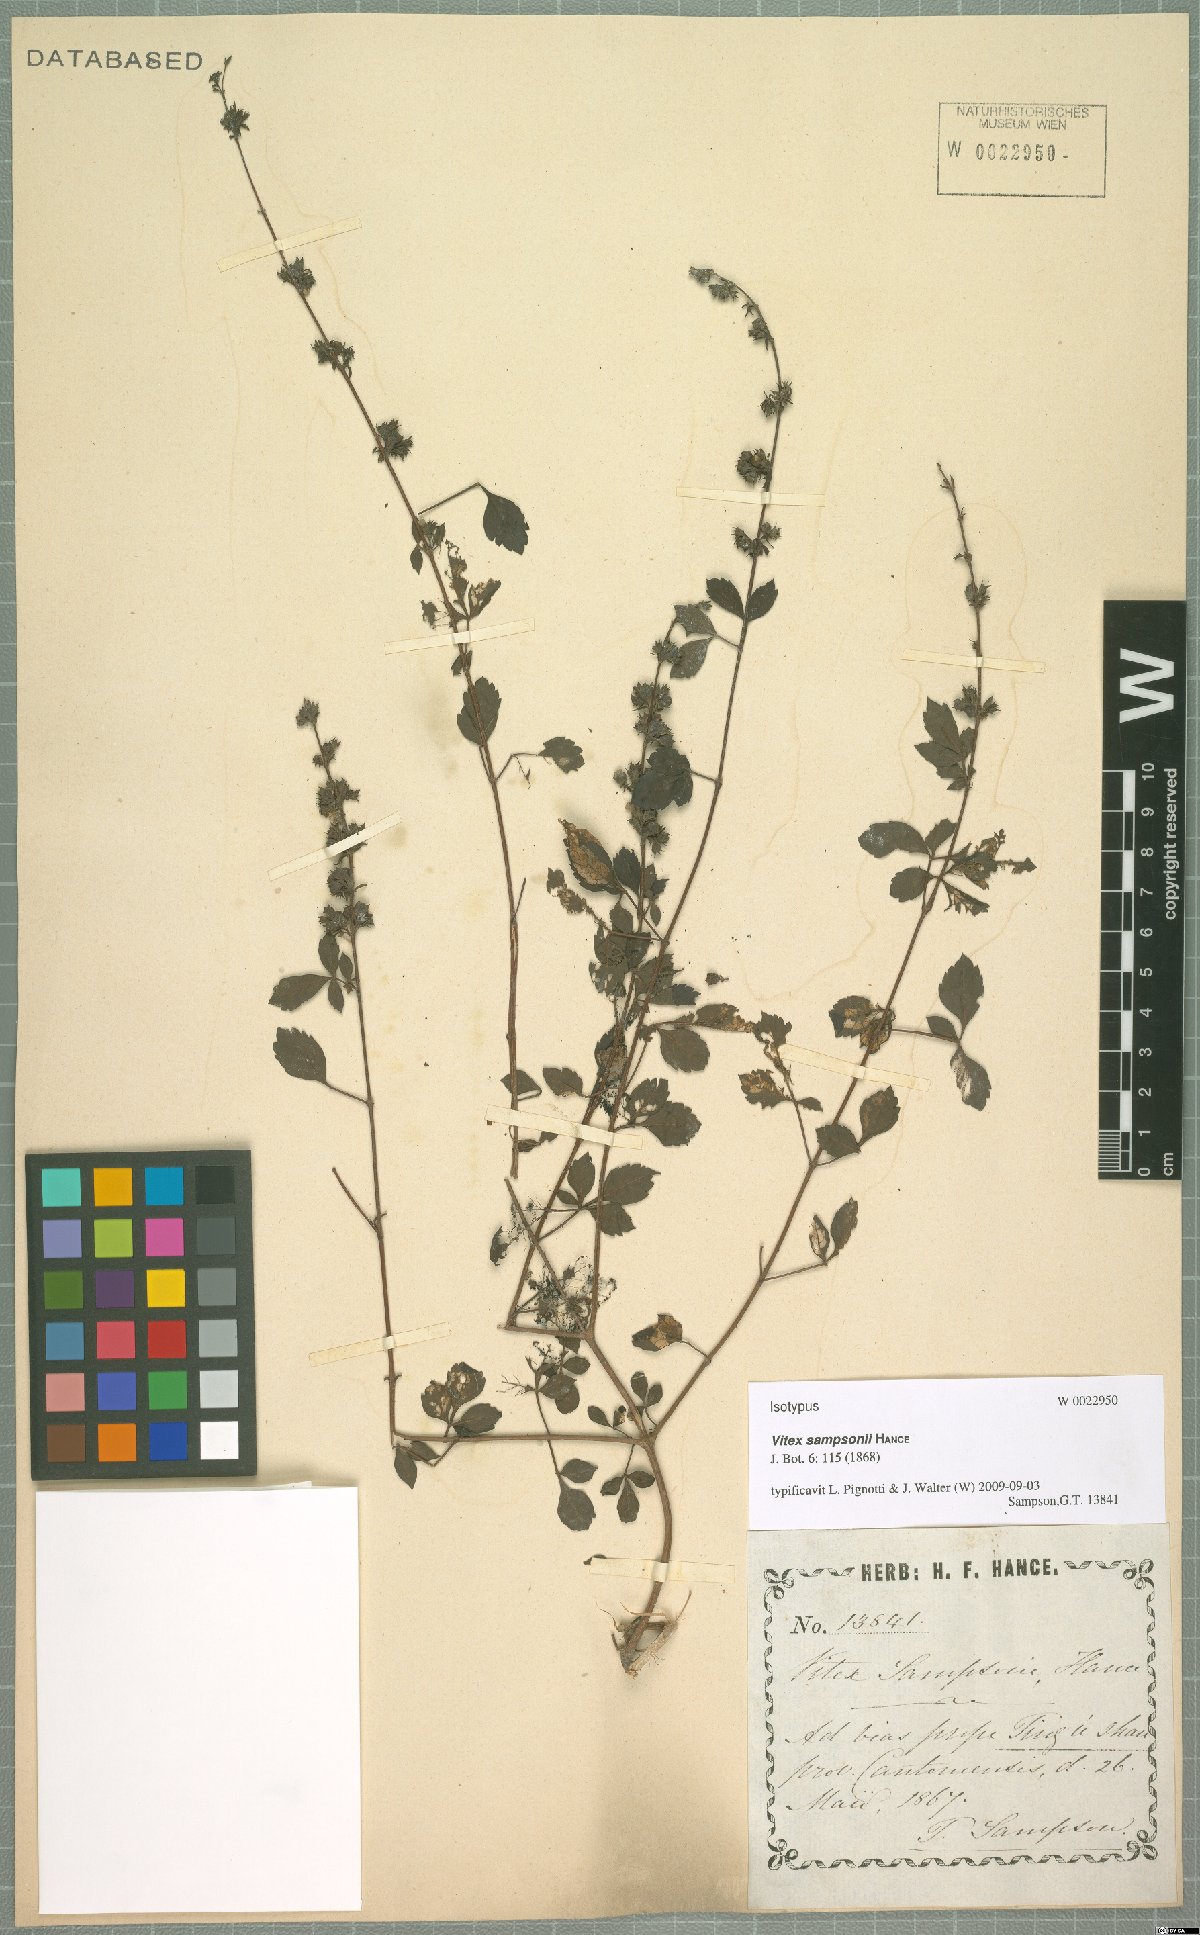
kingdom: Plantae
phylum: Tracheophyta
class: Magnoliopsida
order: Lamiales
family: Lamiaceae
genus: Vitex
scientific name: Vitex sampsonii
